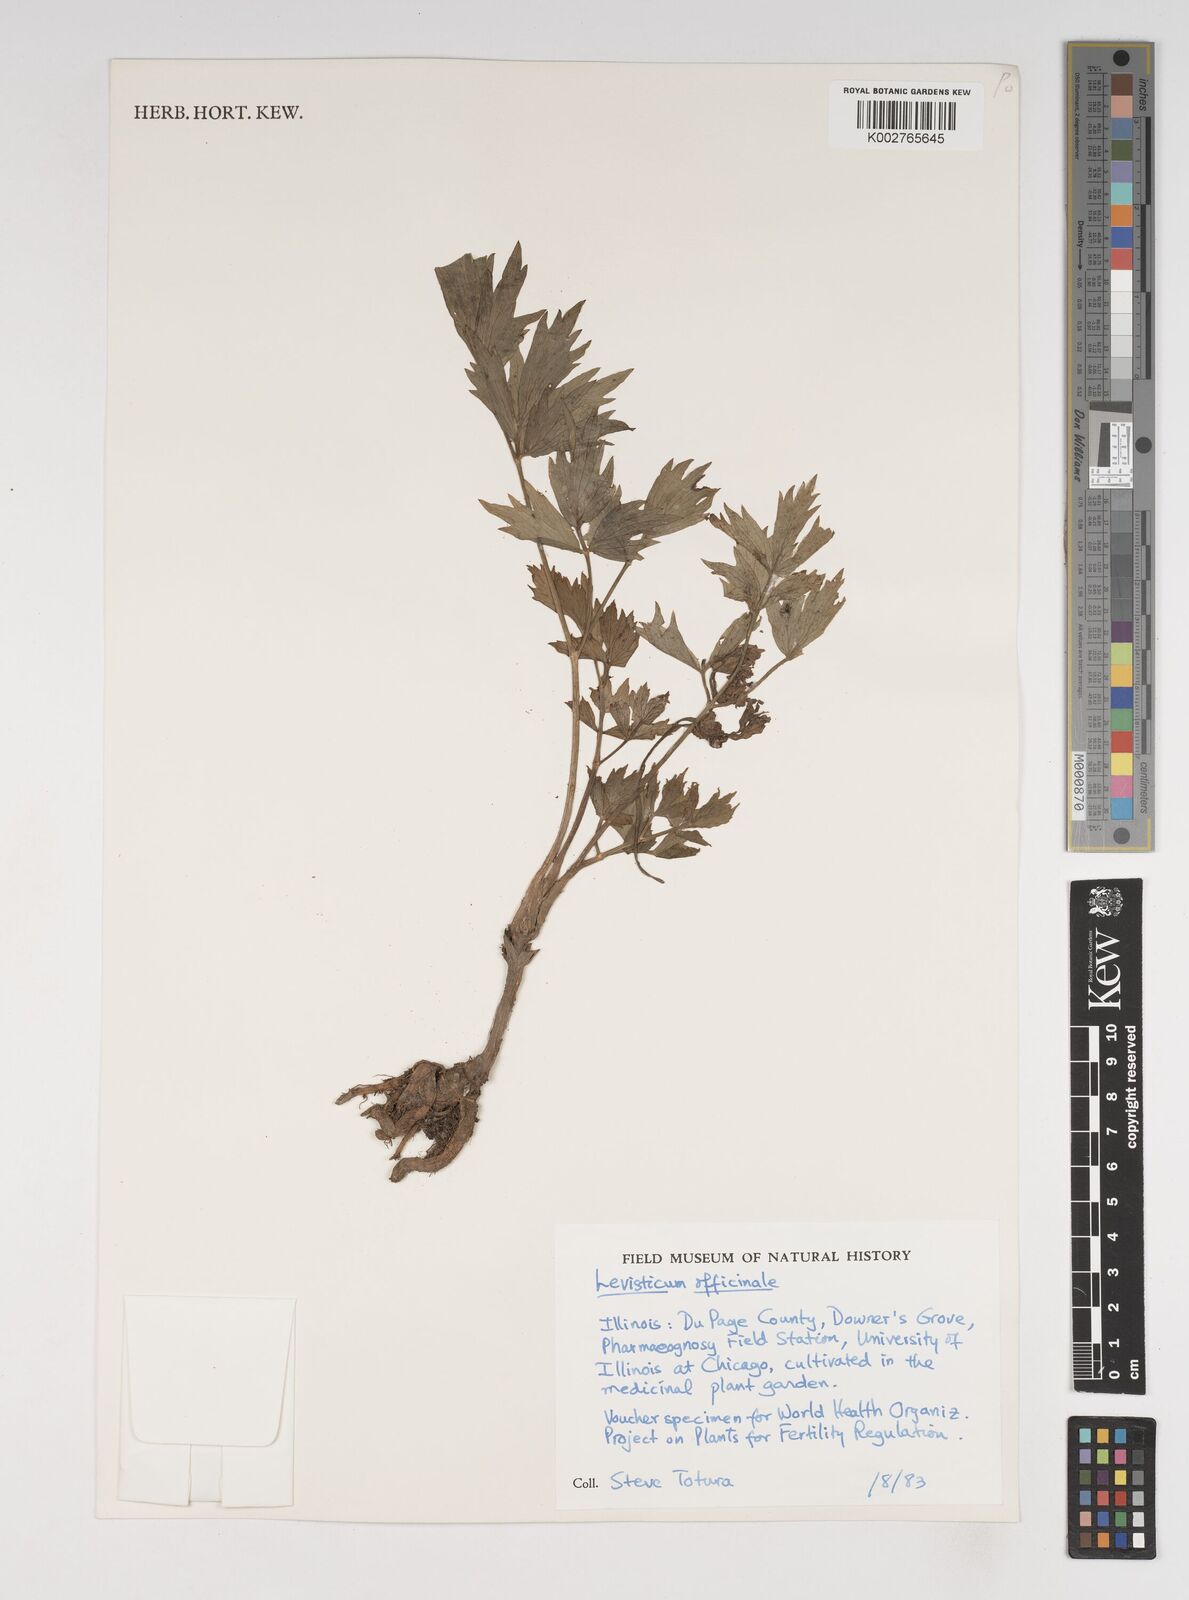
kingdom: Plantae
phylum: Tracheophyta
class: Magnoliopsida
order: Apiales
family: Apiaceae
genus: Levisticum
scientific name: Levisticum officinale
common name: Lovage
